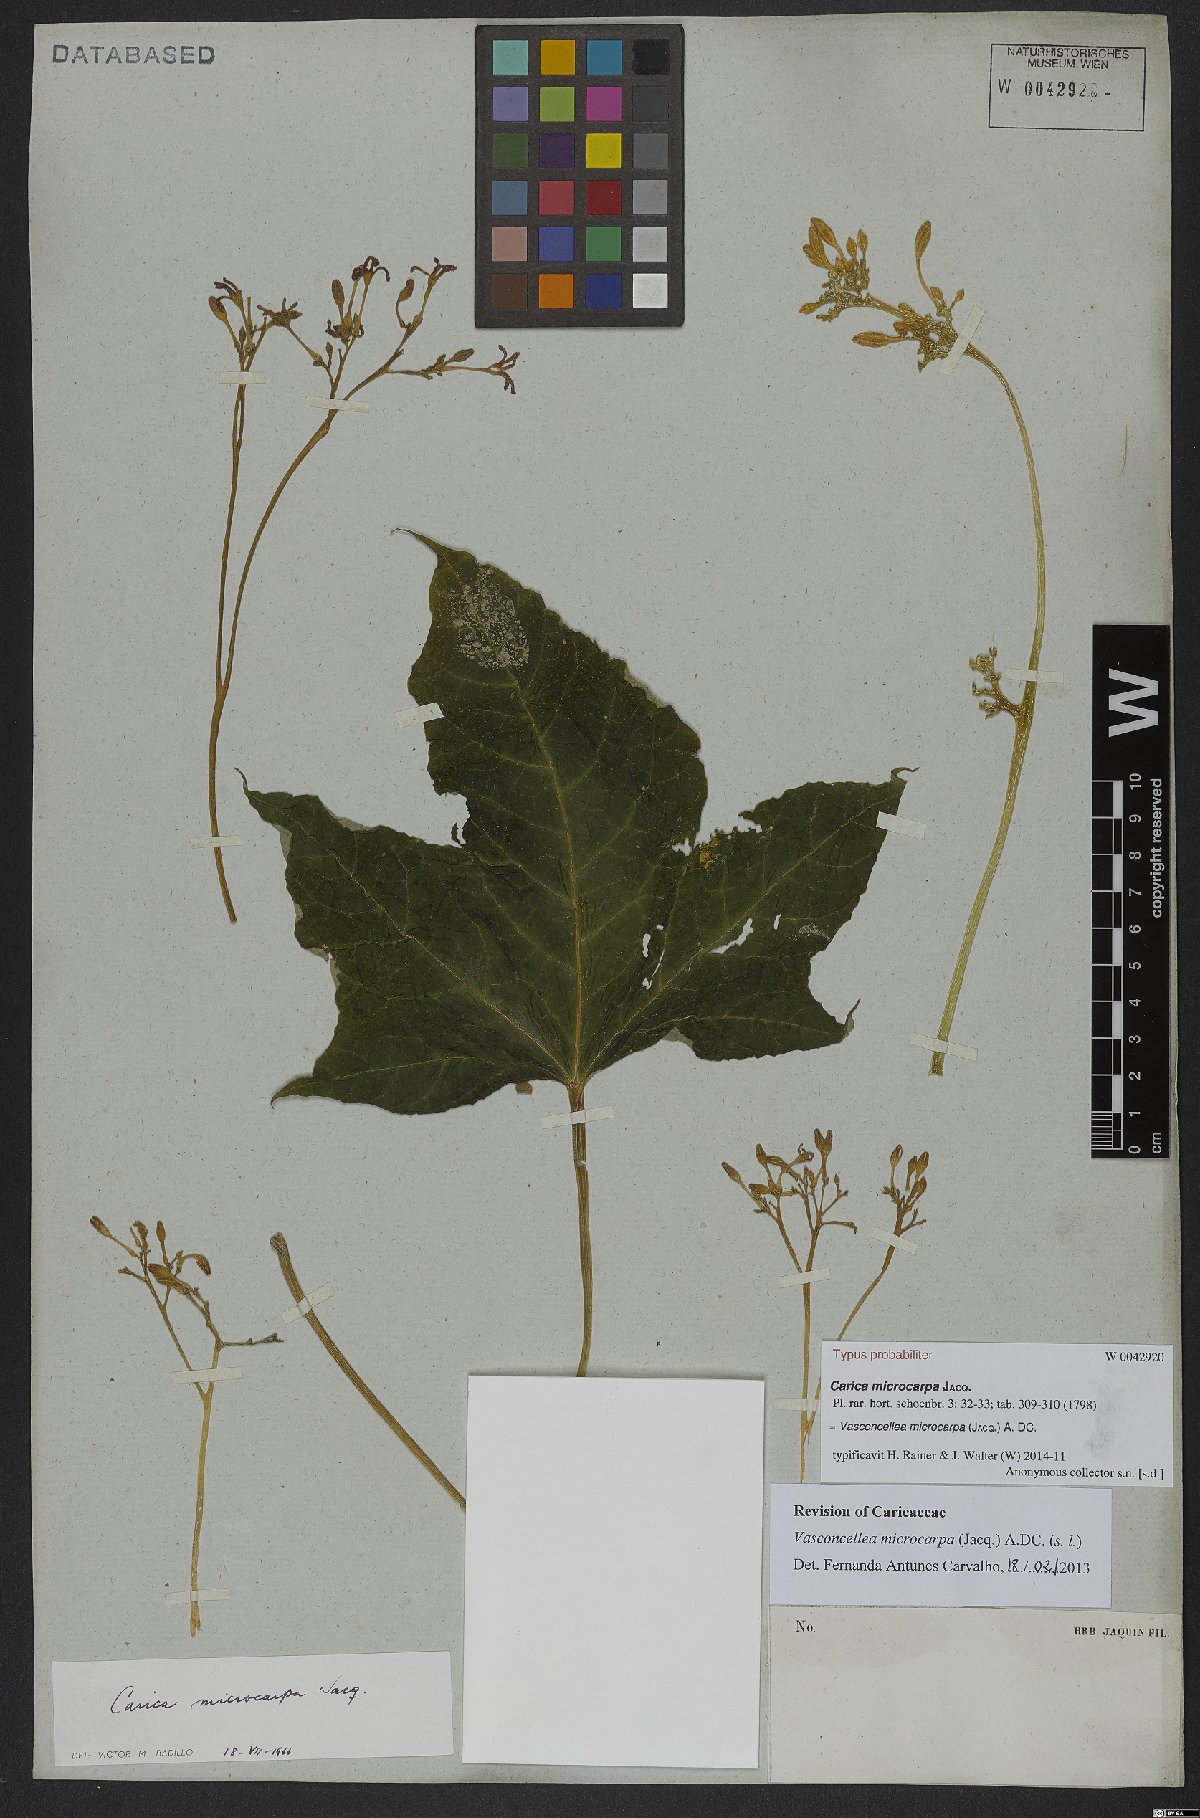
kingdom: Plantae
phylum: Tracheophyta
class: Magnoliopsida
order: Brassicales
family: Caricaceae
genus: Vasconcellea
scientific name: Vasconcellea microcarpa
